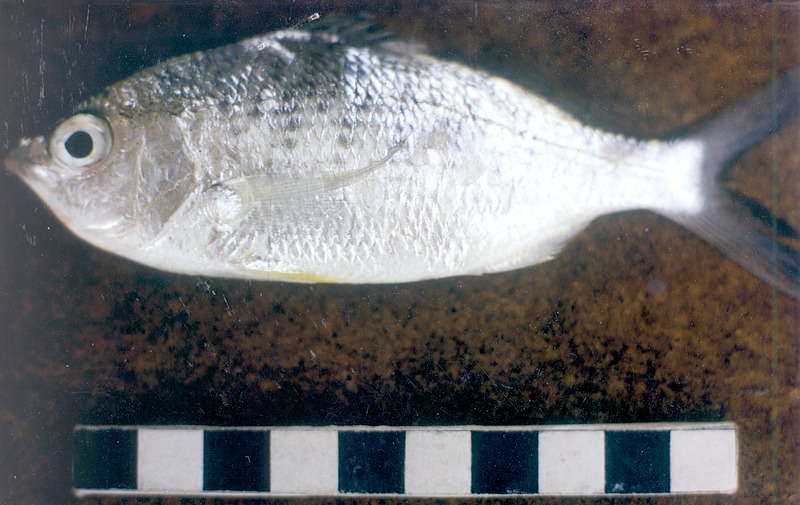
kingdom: Animalia
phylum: Chordata
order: Perciformes
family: Gerreidae
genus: Gerres
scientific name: Gerres longirostris
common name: Strongspine silver-biddy
